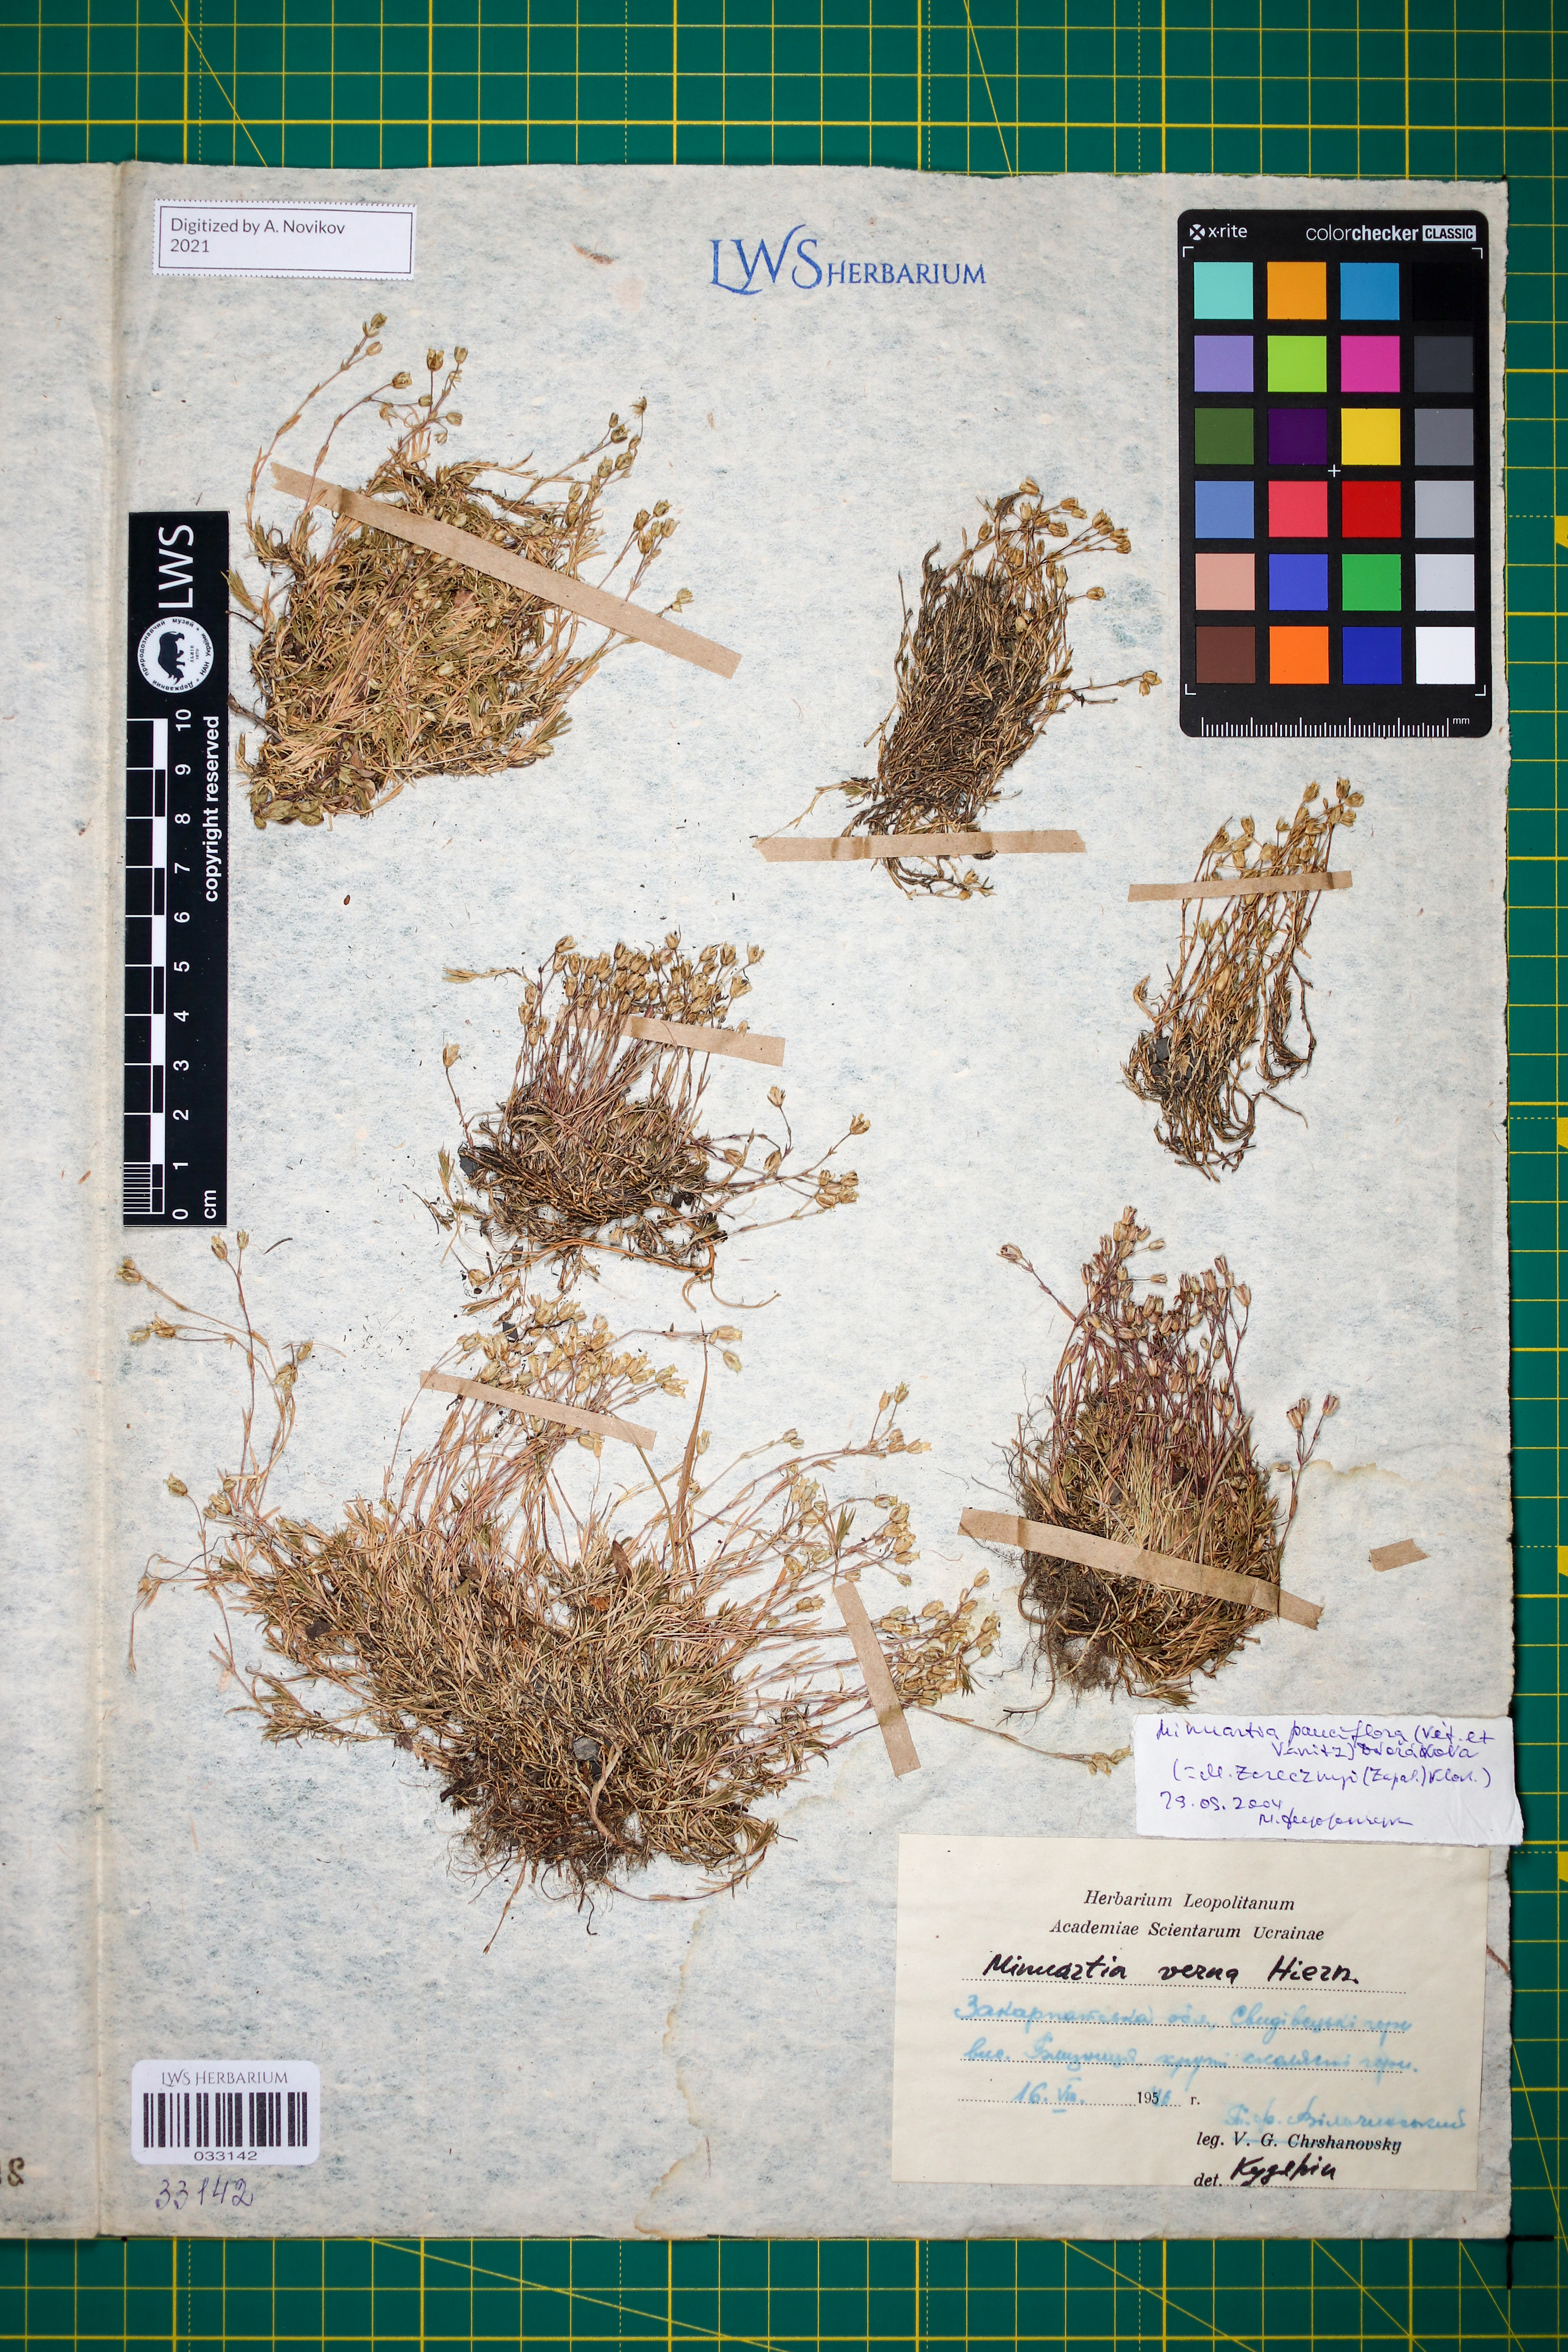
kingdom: Plantae
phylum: Tracheophyta
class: Magnoliopsida
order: Caryophyllales
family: Caryophyllaceae
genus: Minuartia
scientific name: Minuartia pauciflora
